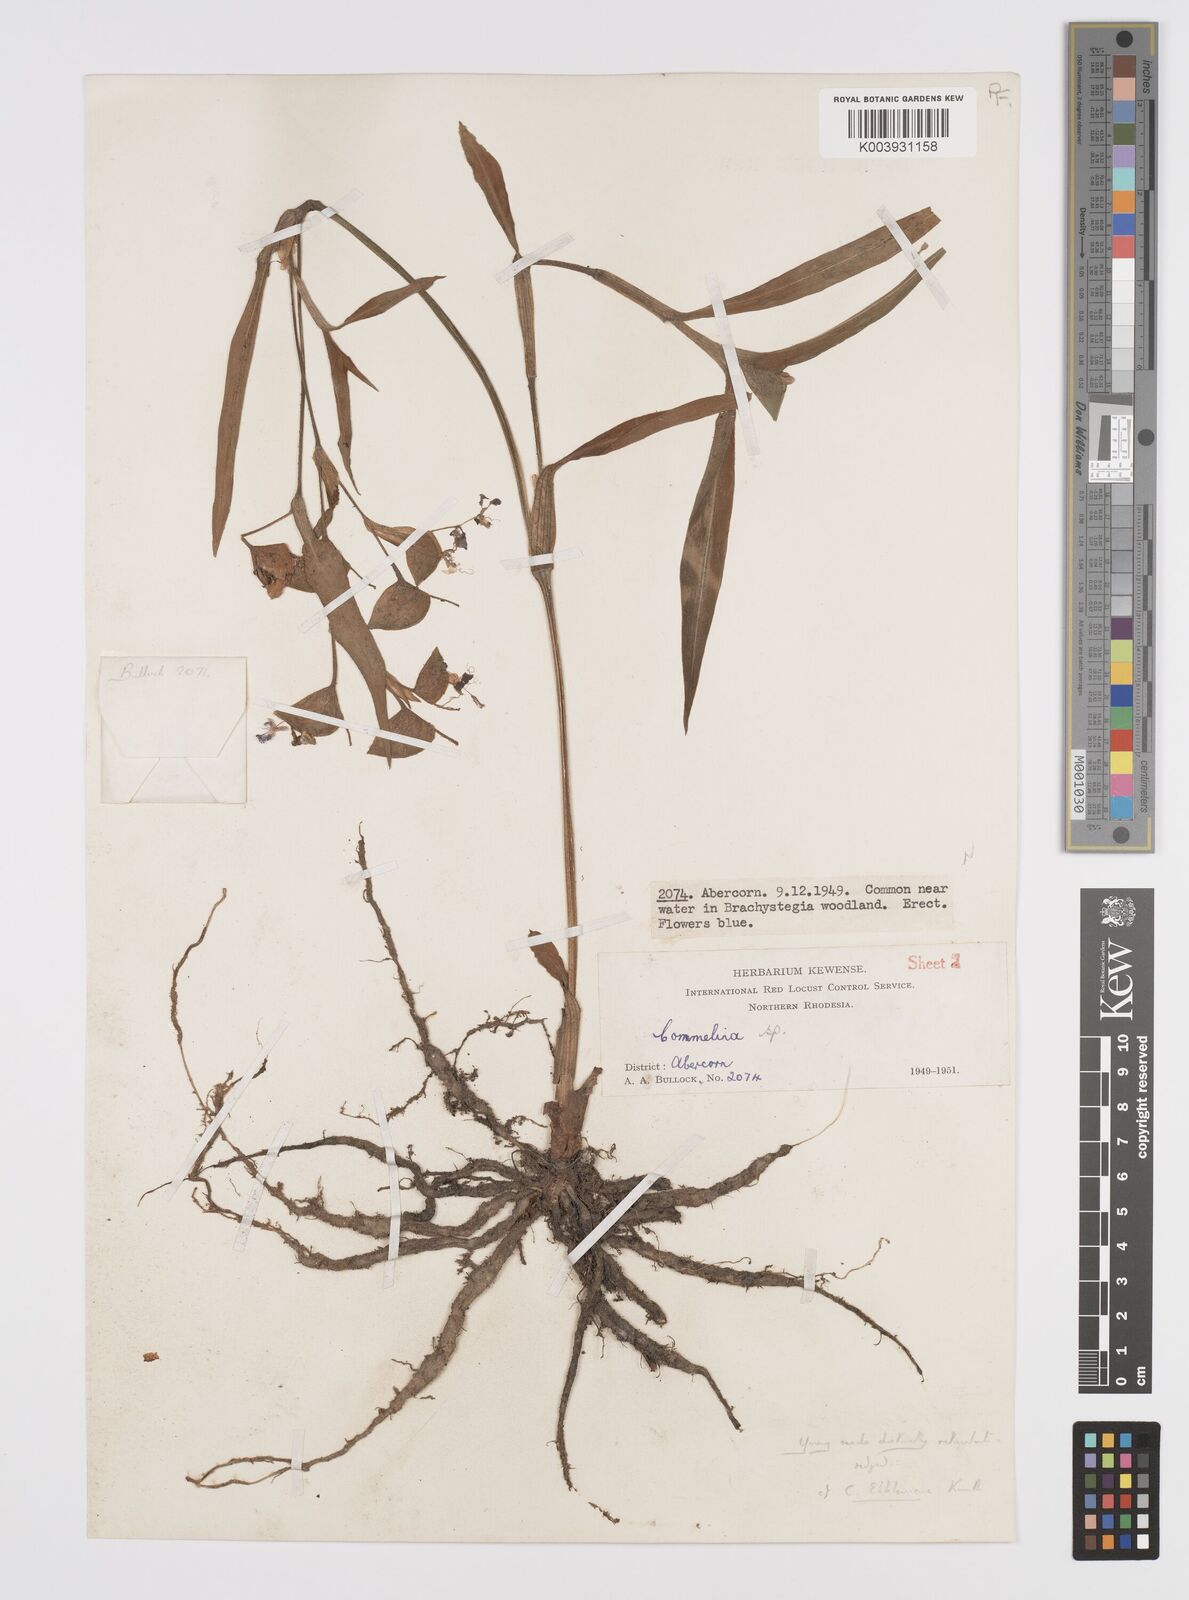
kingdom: Plantae
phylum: Tracheophyta
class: Liliopsida
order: Commelinales
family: Commelinaceae
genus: Commelina
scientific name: Commelina eckloniana
